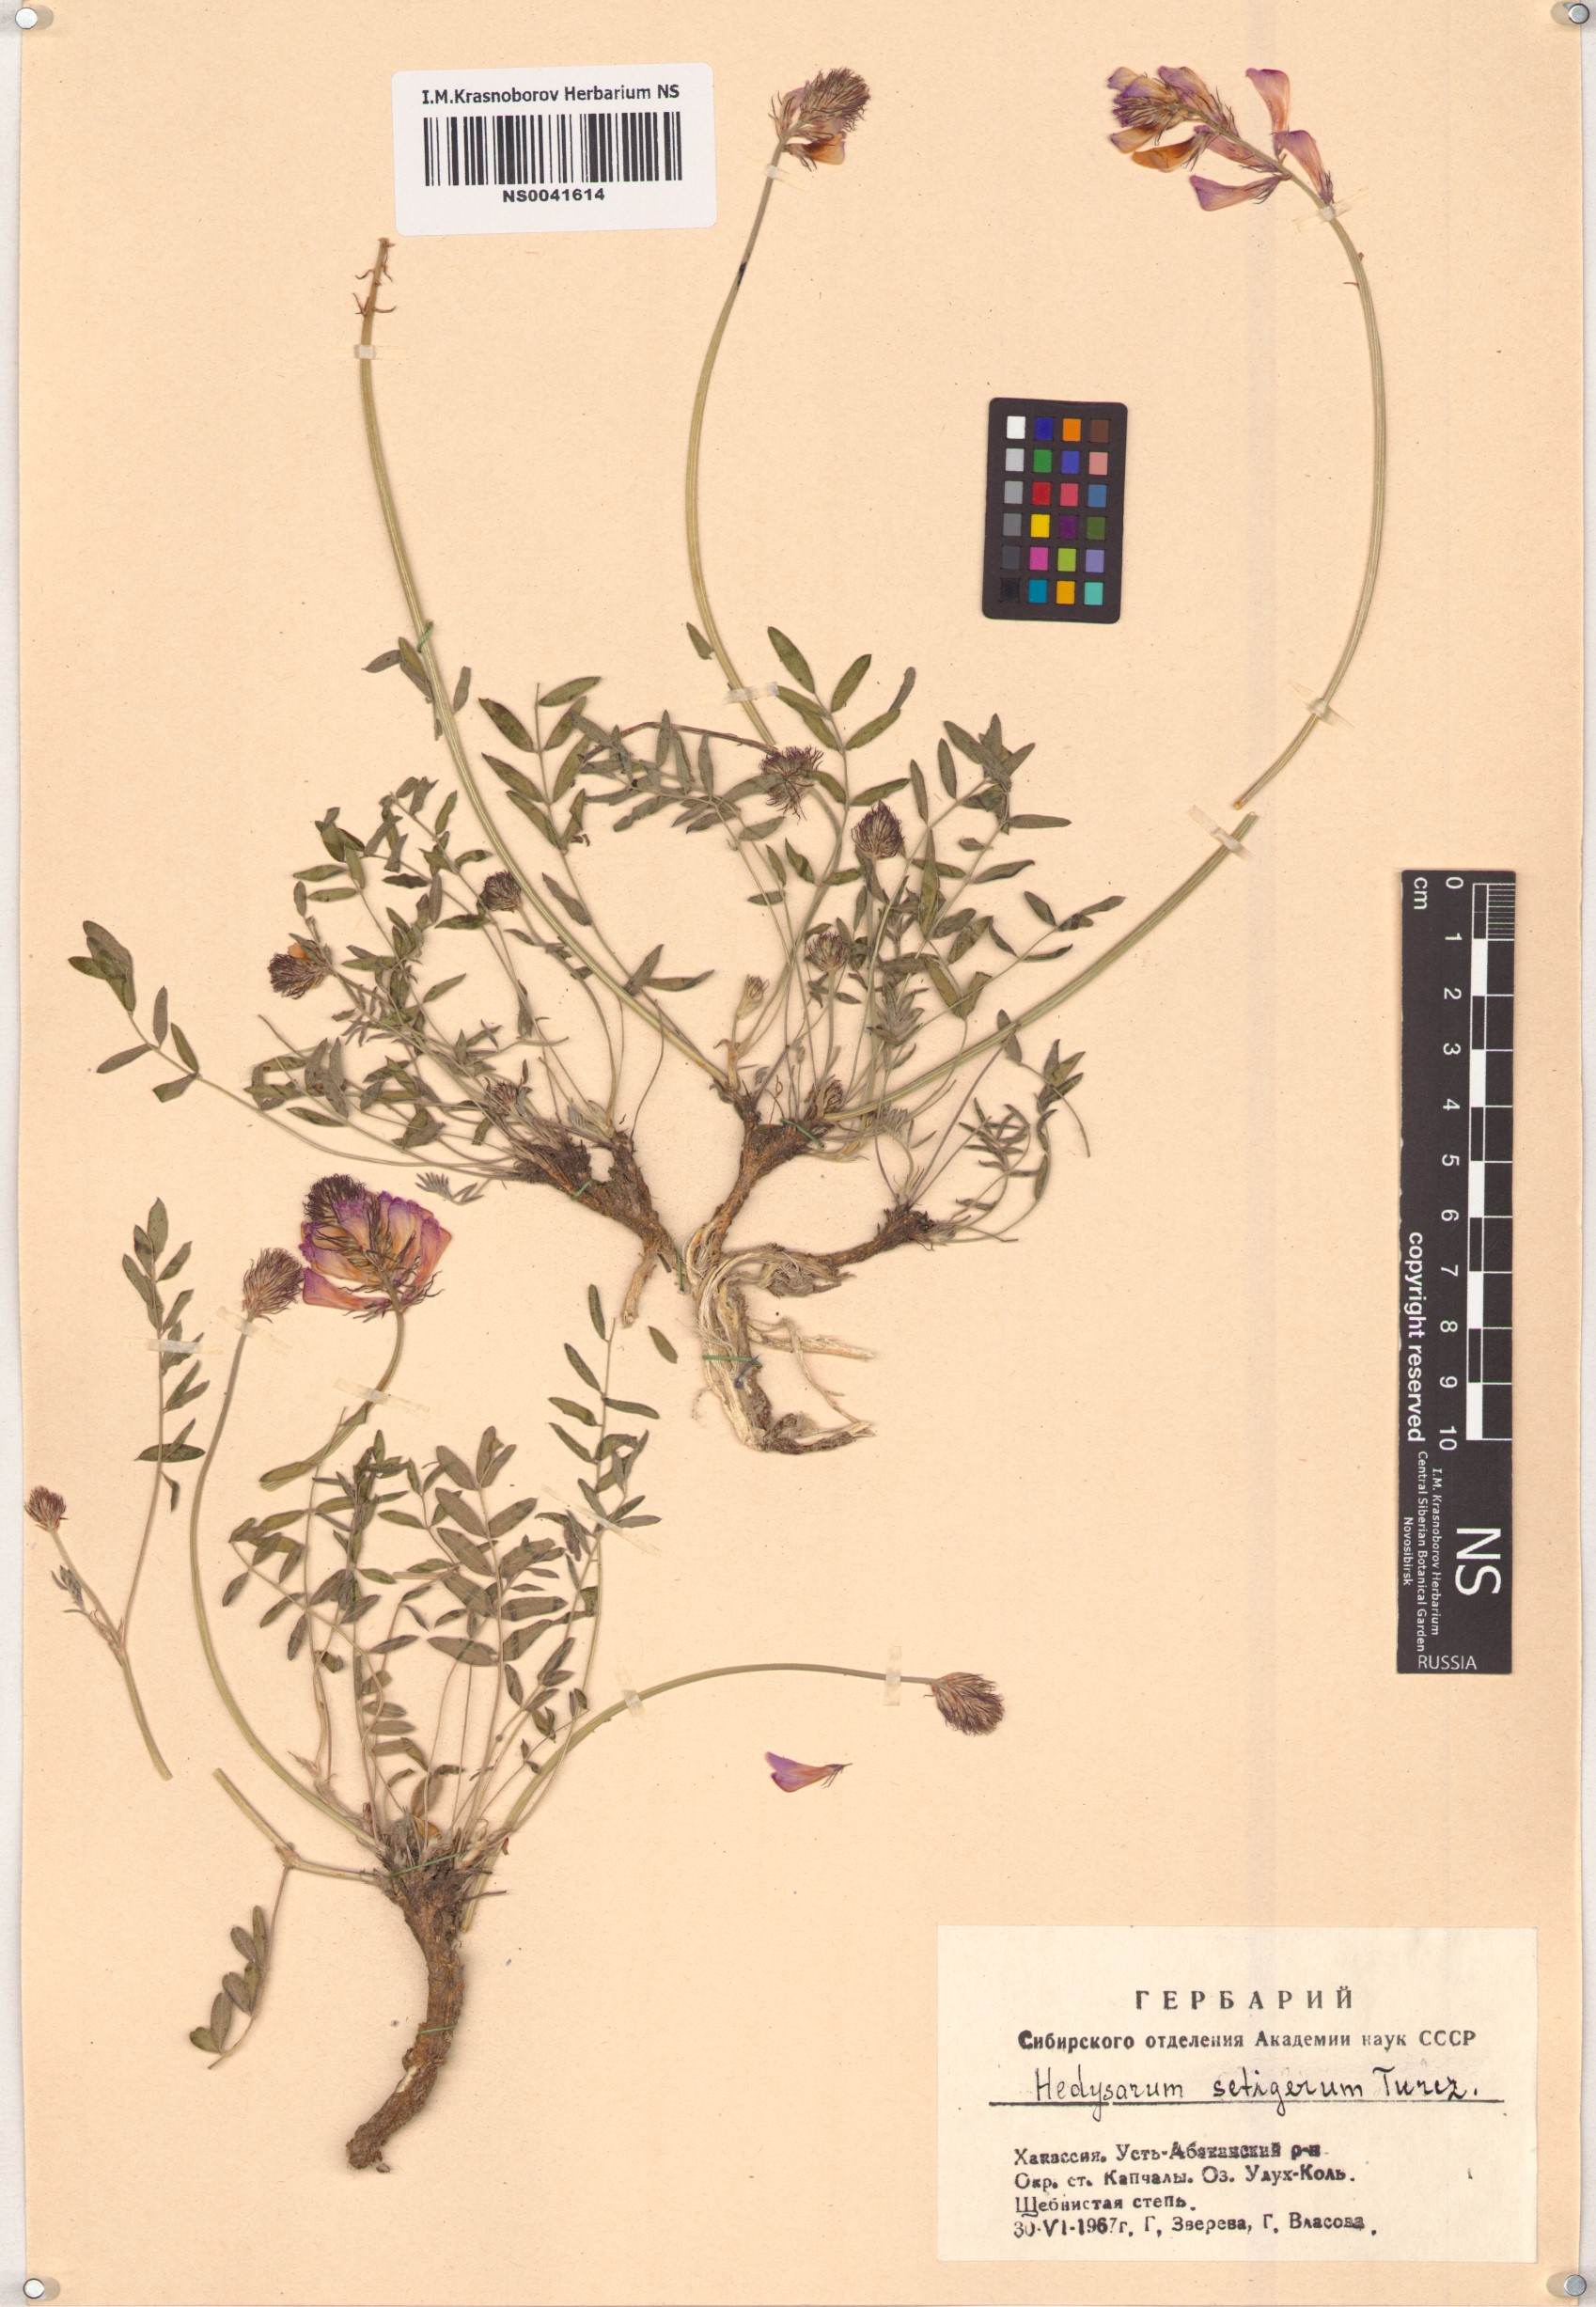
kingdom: Plantae
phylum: Tracheophyta
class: Magnoliopsida
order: Fabales
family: Fabaceae
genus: Hedysarum
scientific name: Hedysarum setigerum
